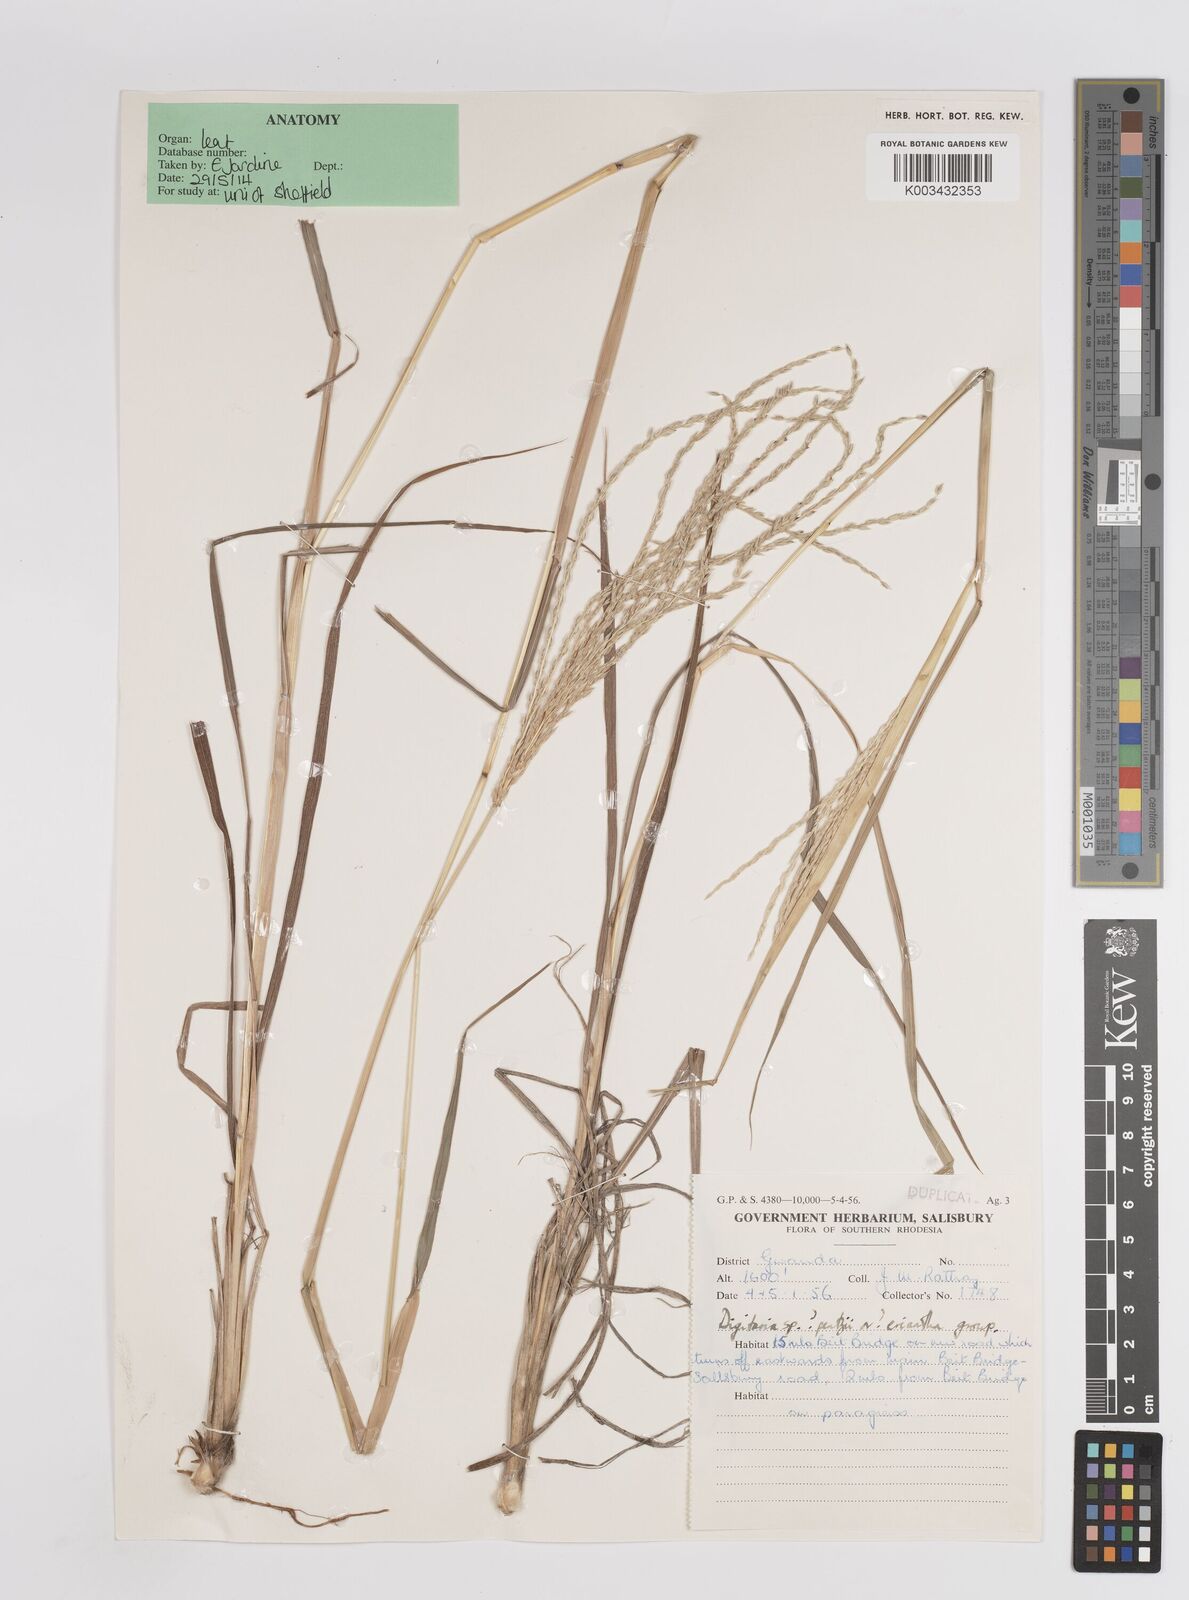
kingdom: Plantae
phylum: Tracheophyta
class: Liliopsida
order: Poales
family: Poaceae
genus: Digitaria
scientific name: Digitaria eriantha
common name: Digitgrass
